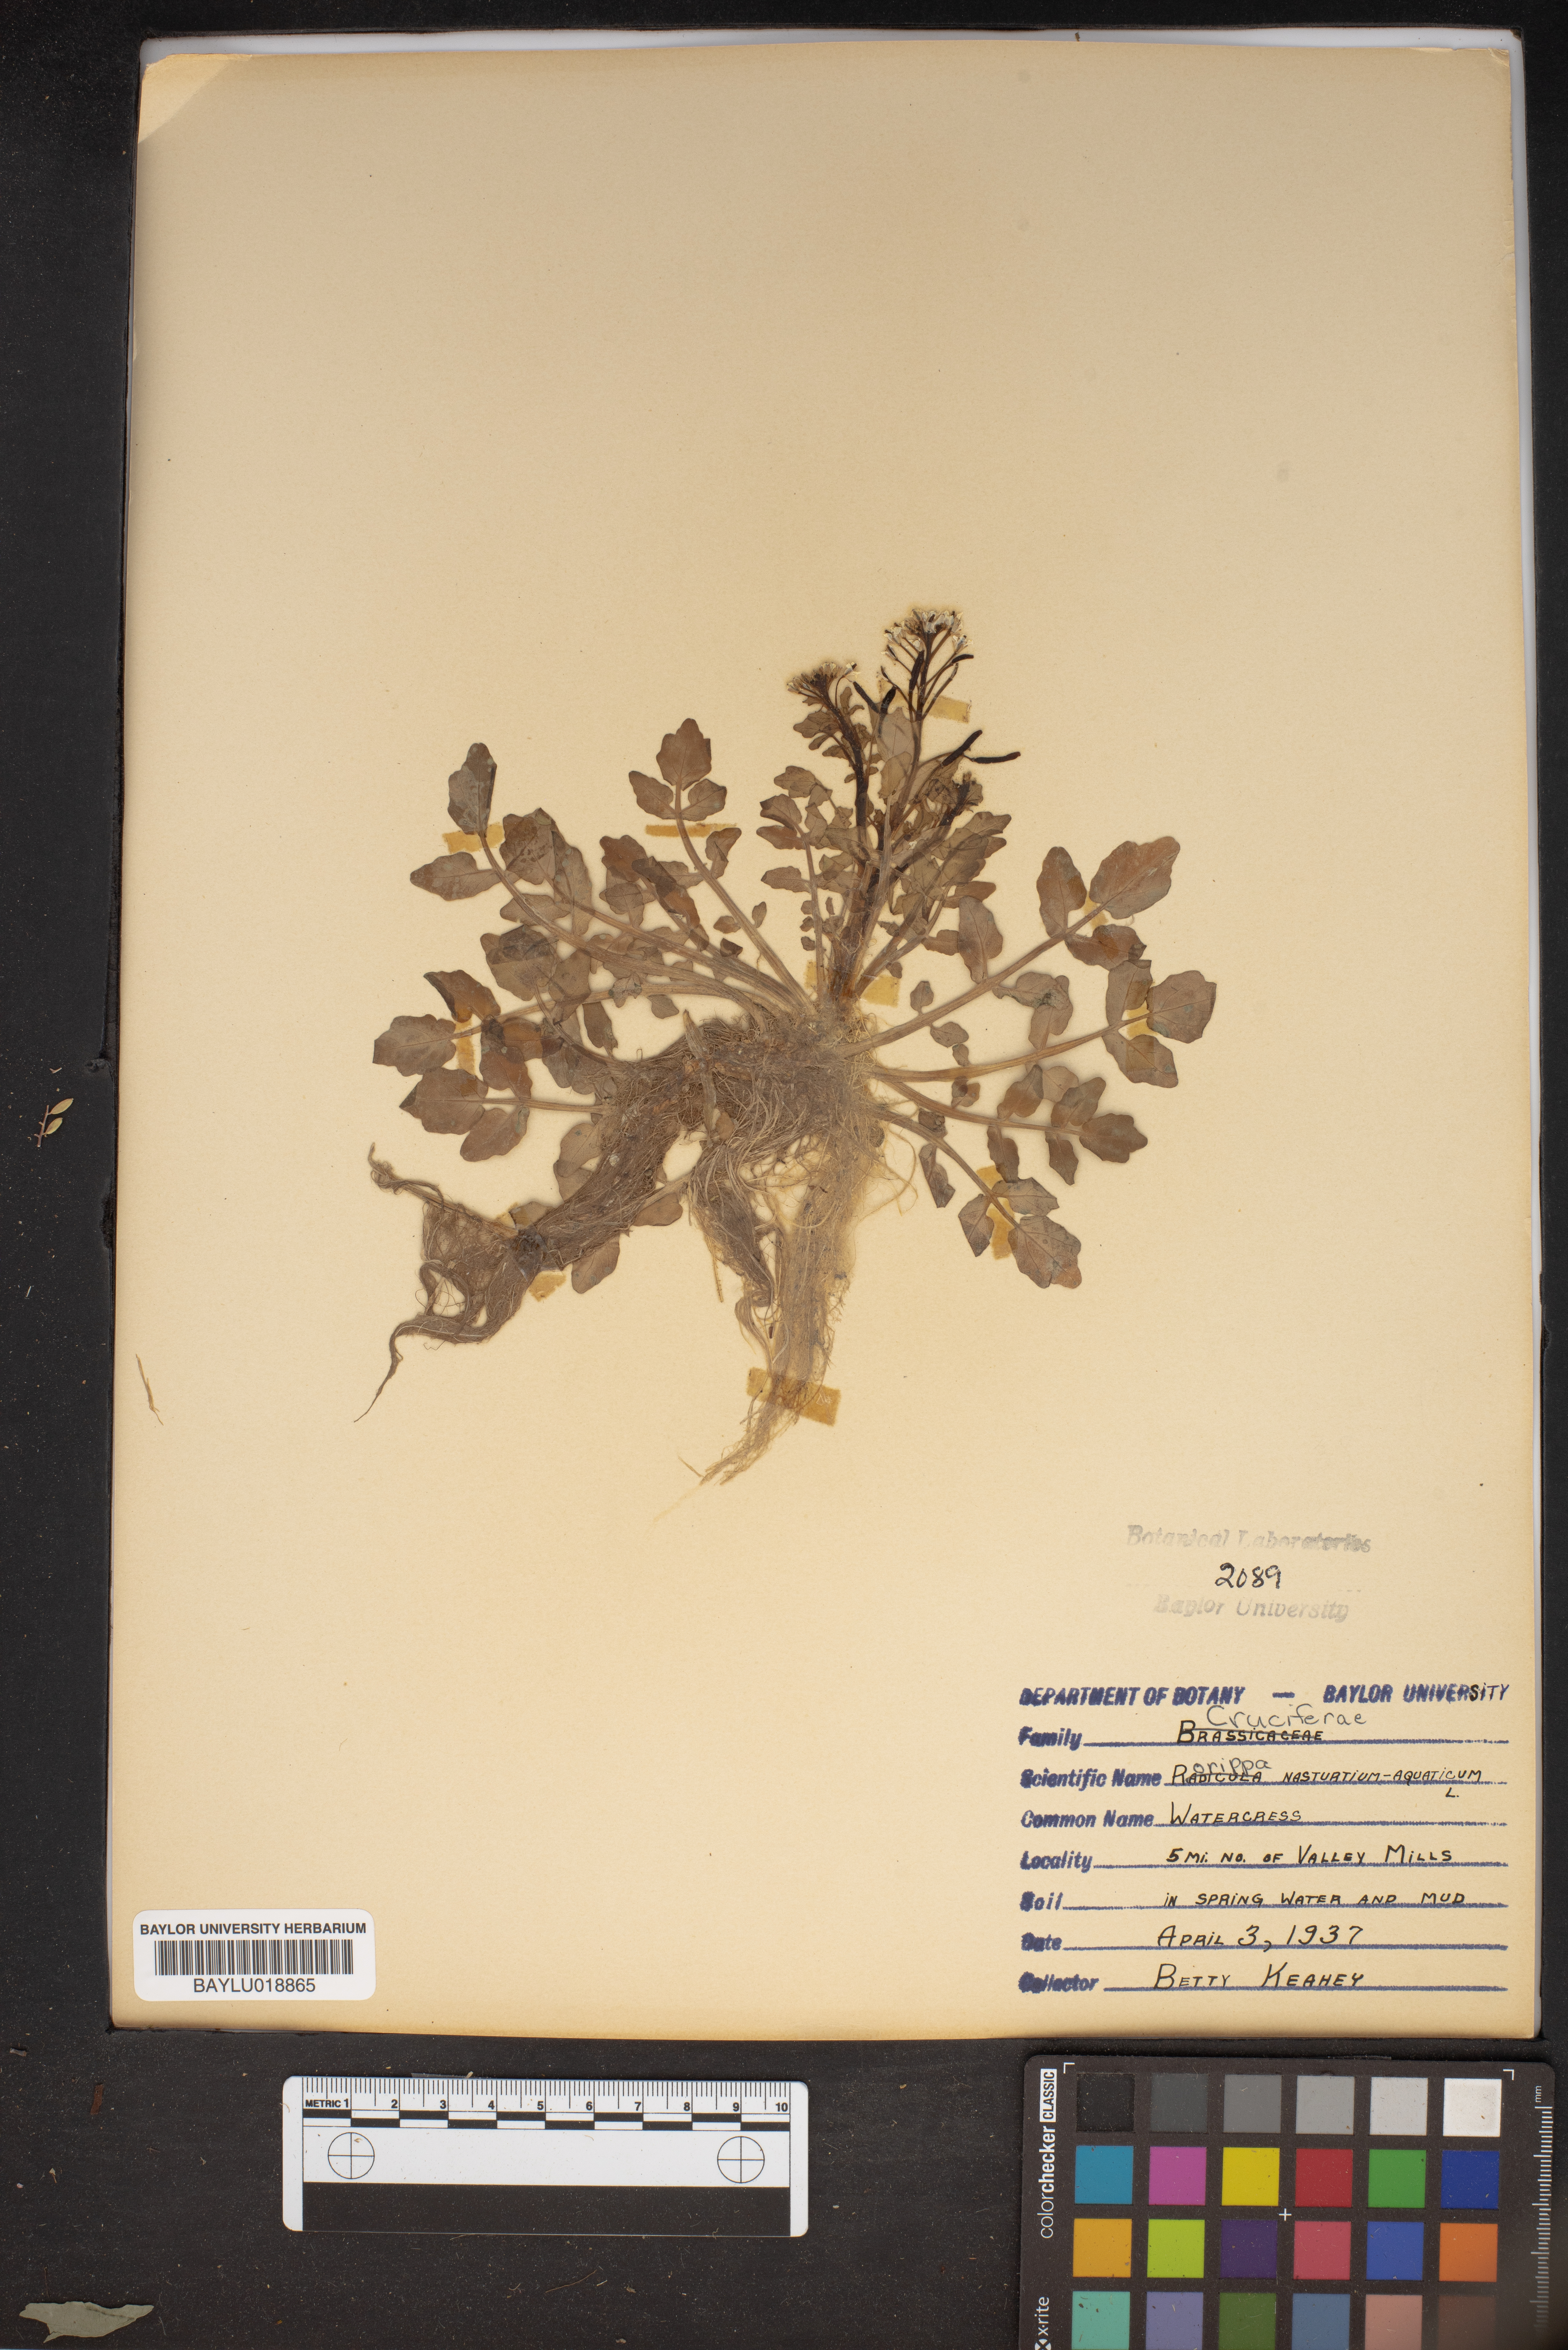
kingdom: Plantae
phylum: Tracheophyta
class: Magnoliopsida
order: Brassicales
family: Brassicaceae
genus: Nasturtium
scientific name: Nasturtium officinale
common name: Watercress
